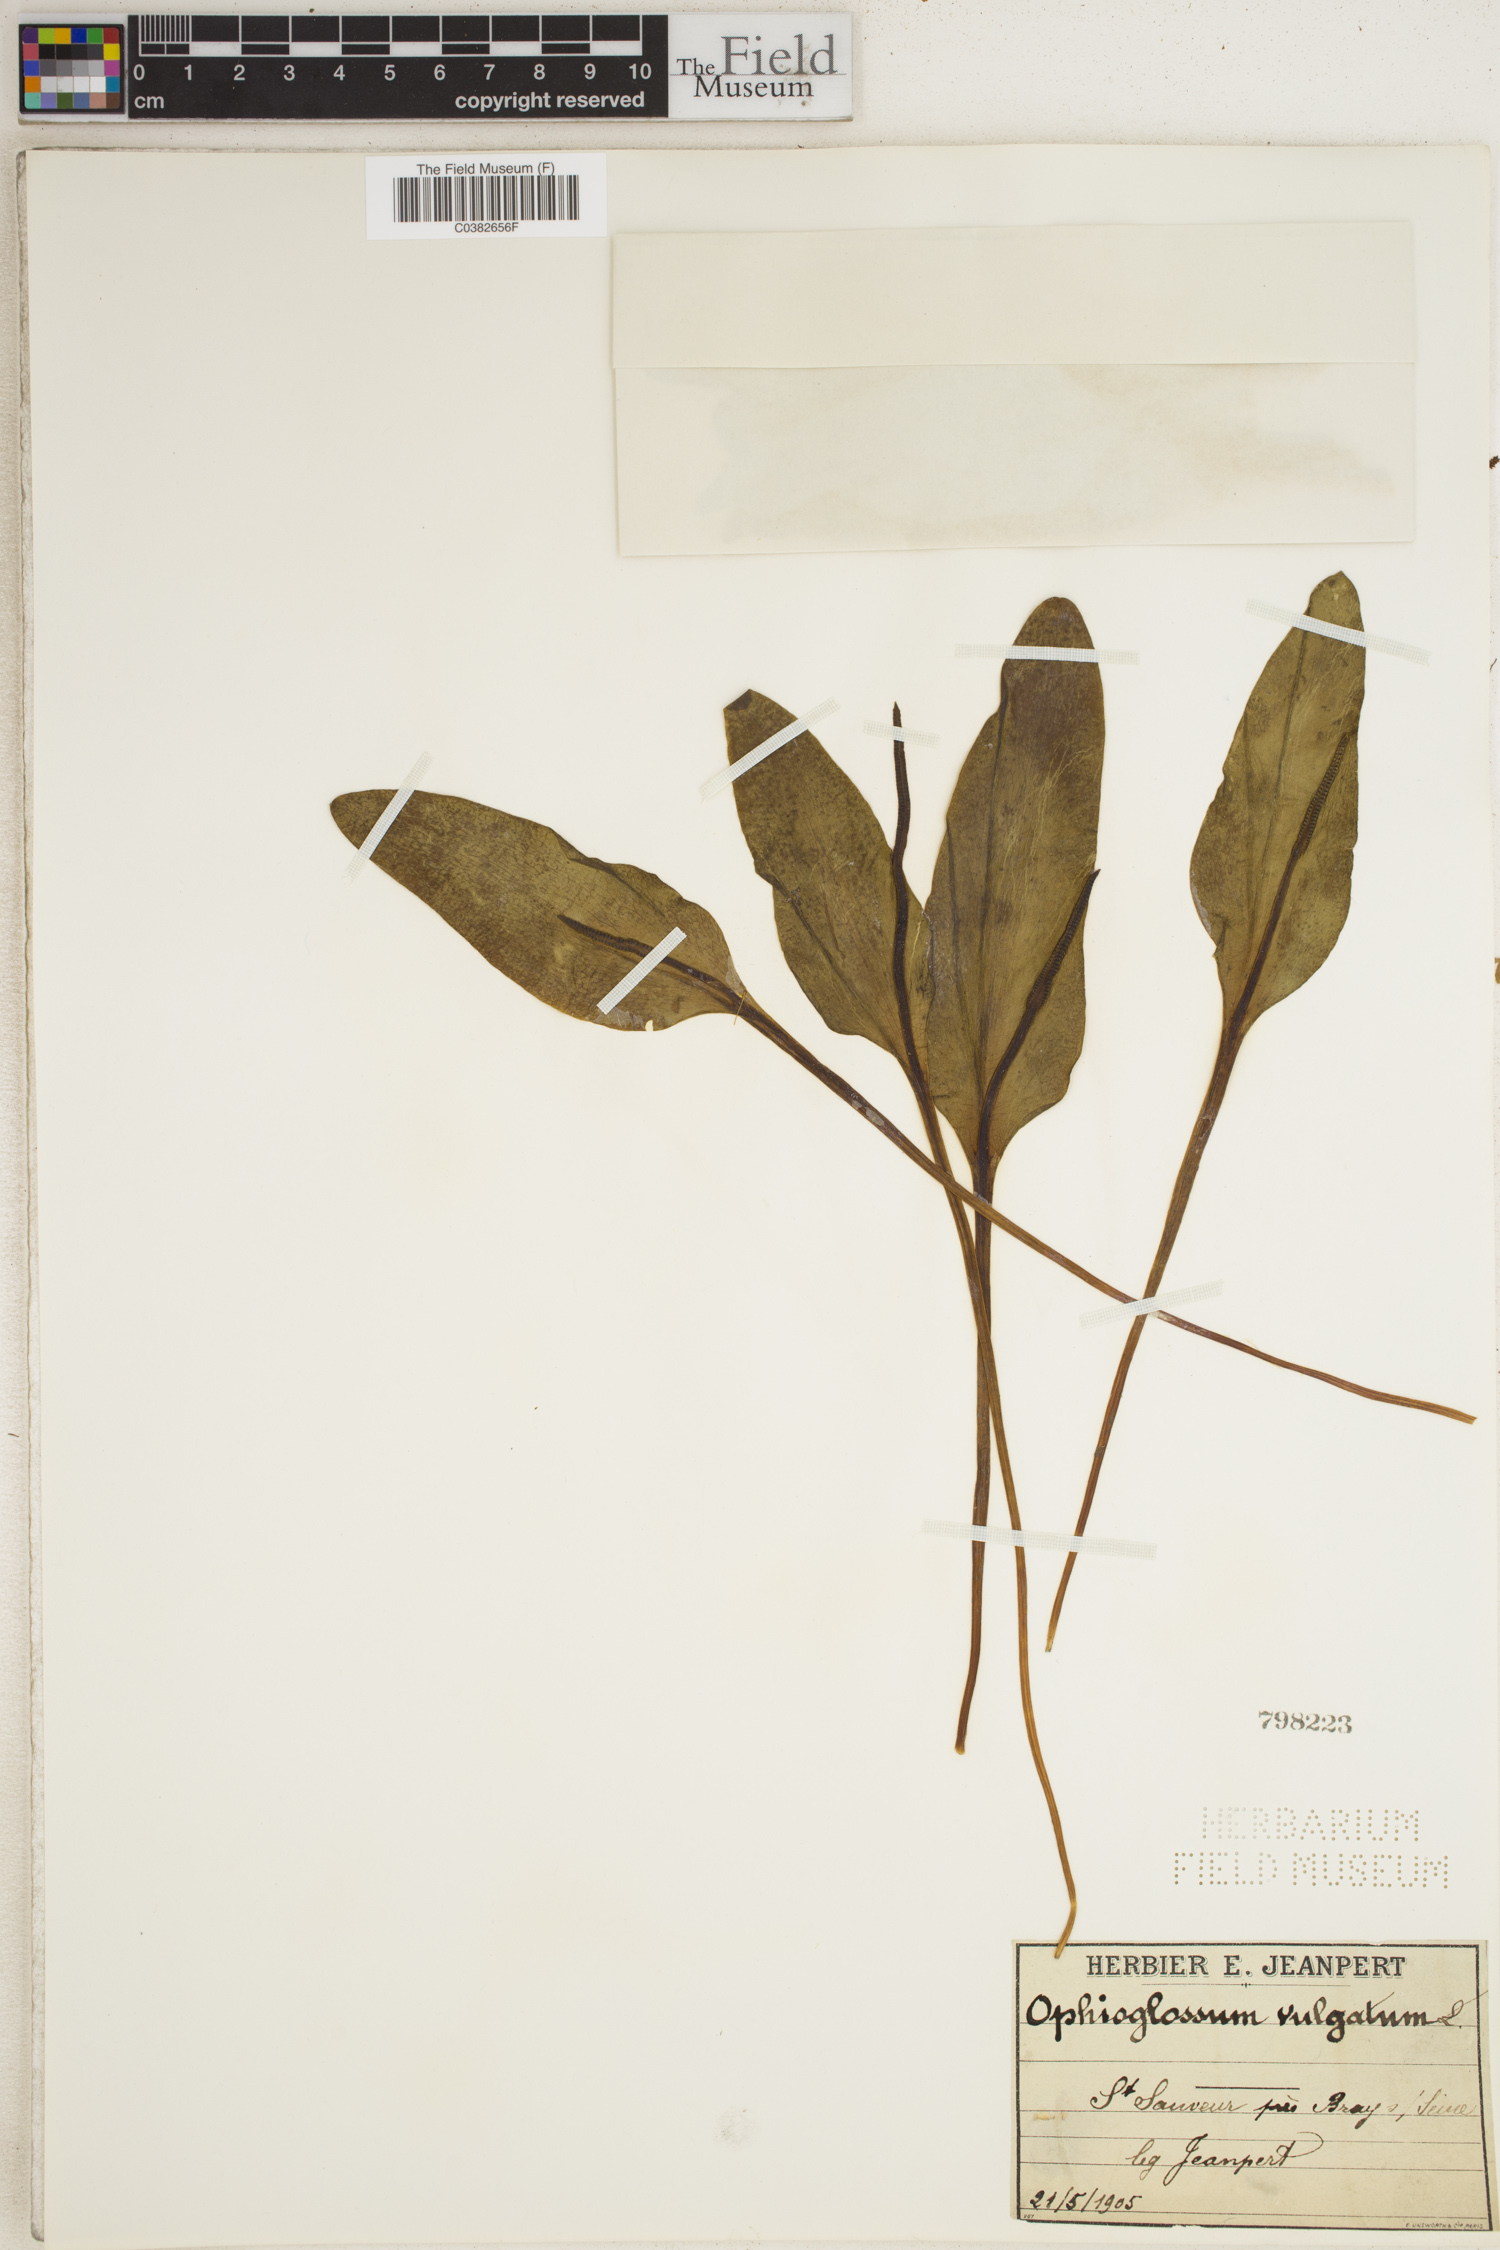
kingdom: Plantae
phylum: Tracheophyta
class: Polypodiopsida
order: Ophioglossales
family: Ophioglossaceae
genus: Ophioglossum
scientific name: Ophioglossum vulgatum
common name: Adder's-tongue
